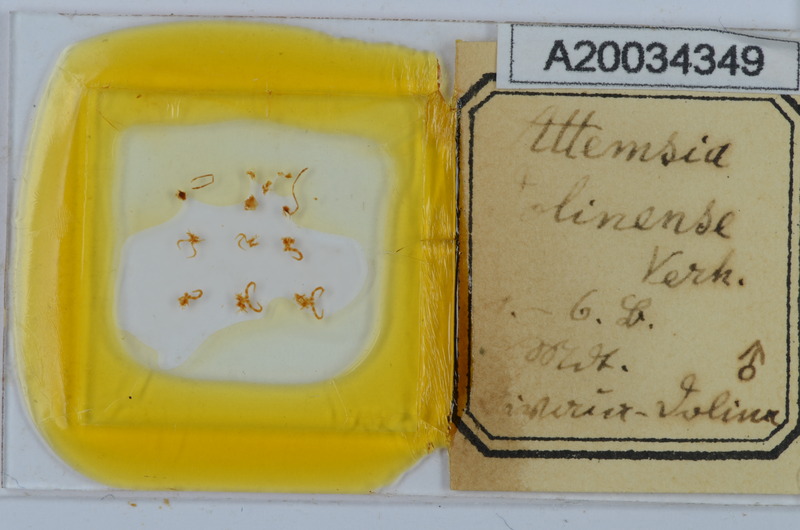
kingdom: Animalia
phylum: Arthropoda
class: Diplopoda
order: Chordeumatida
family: Attemsiidae
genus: Attemsia
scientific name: Attemsia dolinensis
